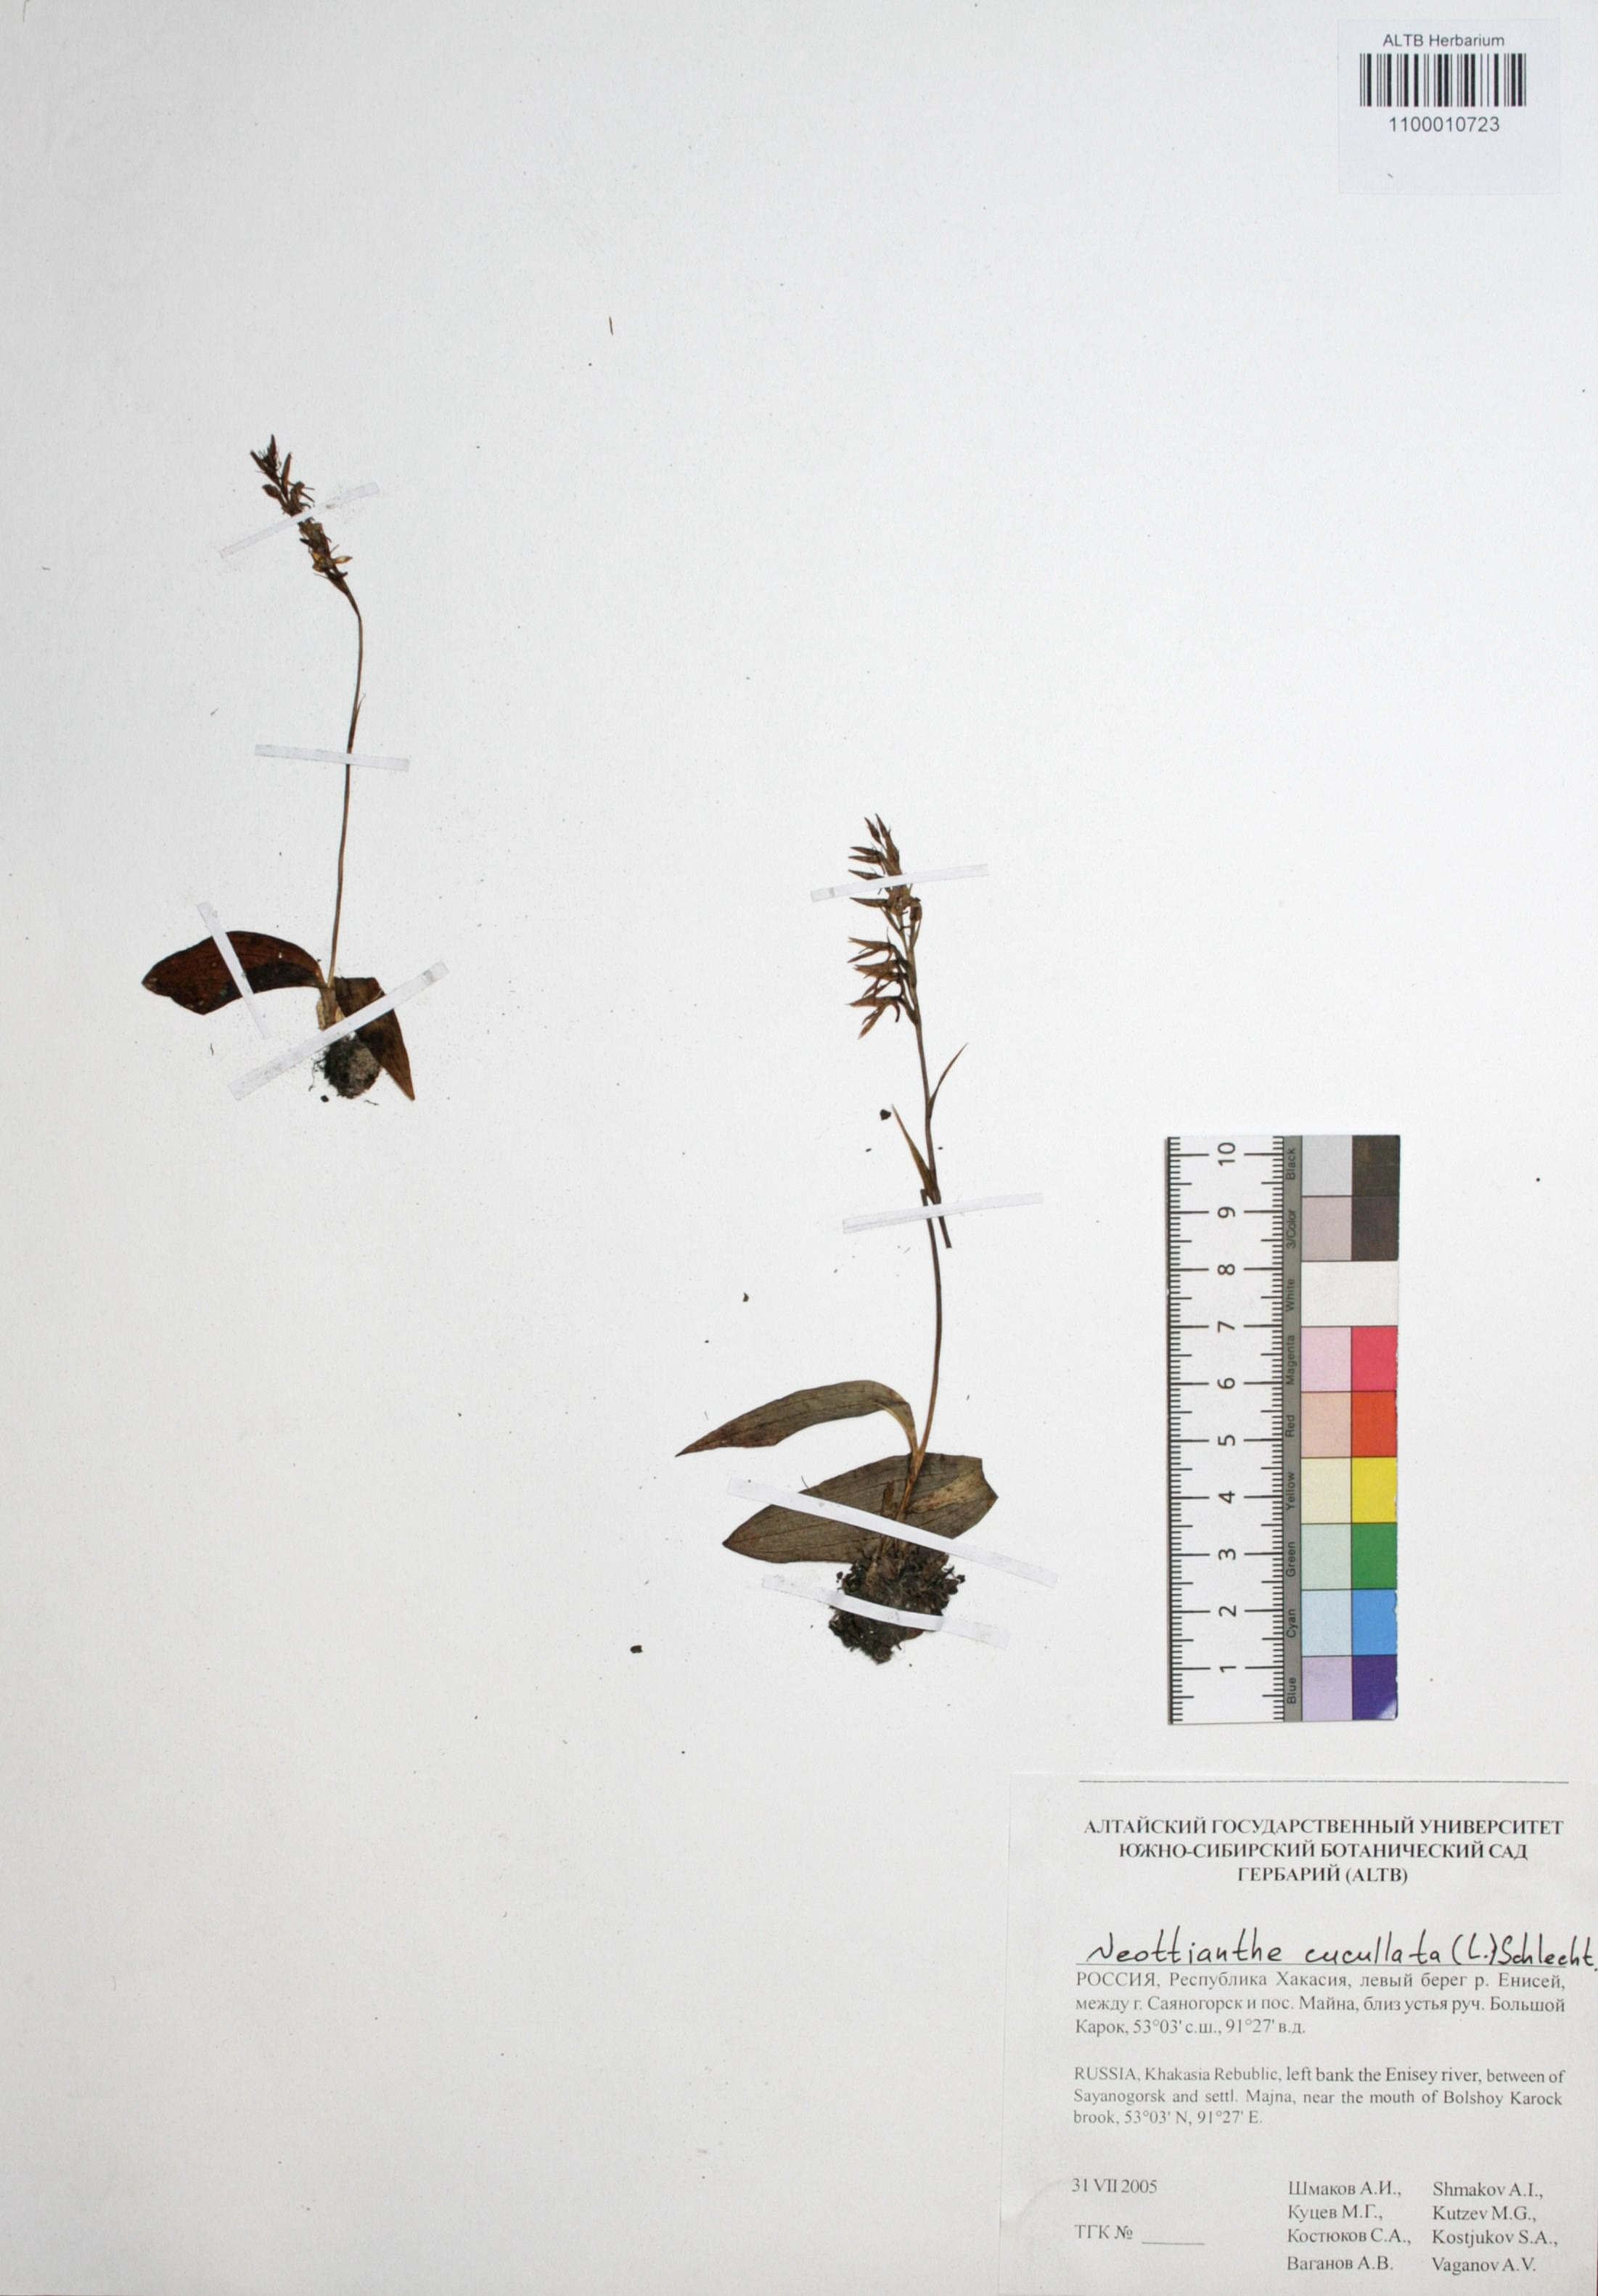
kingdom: Plantae
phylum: Tracheophyta
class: Liliopsida
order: Asparagales
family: Orchidaceae
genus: Hemipilia
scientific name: Hemipilia cucullata
